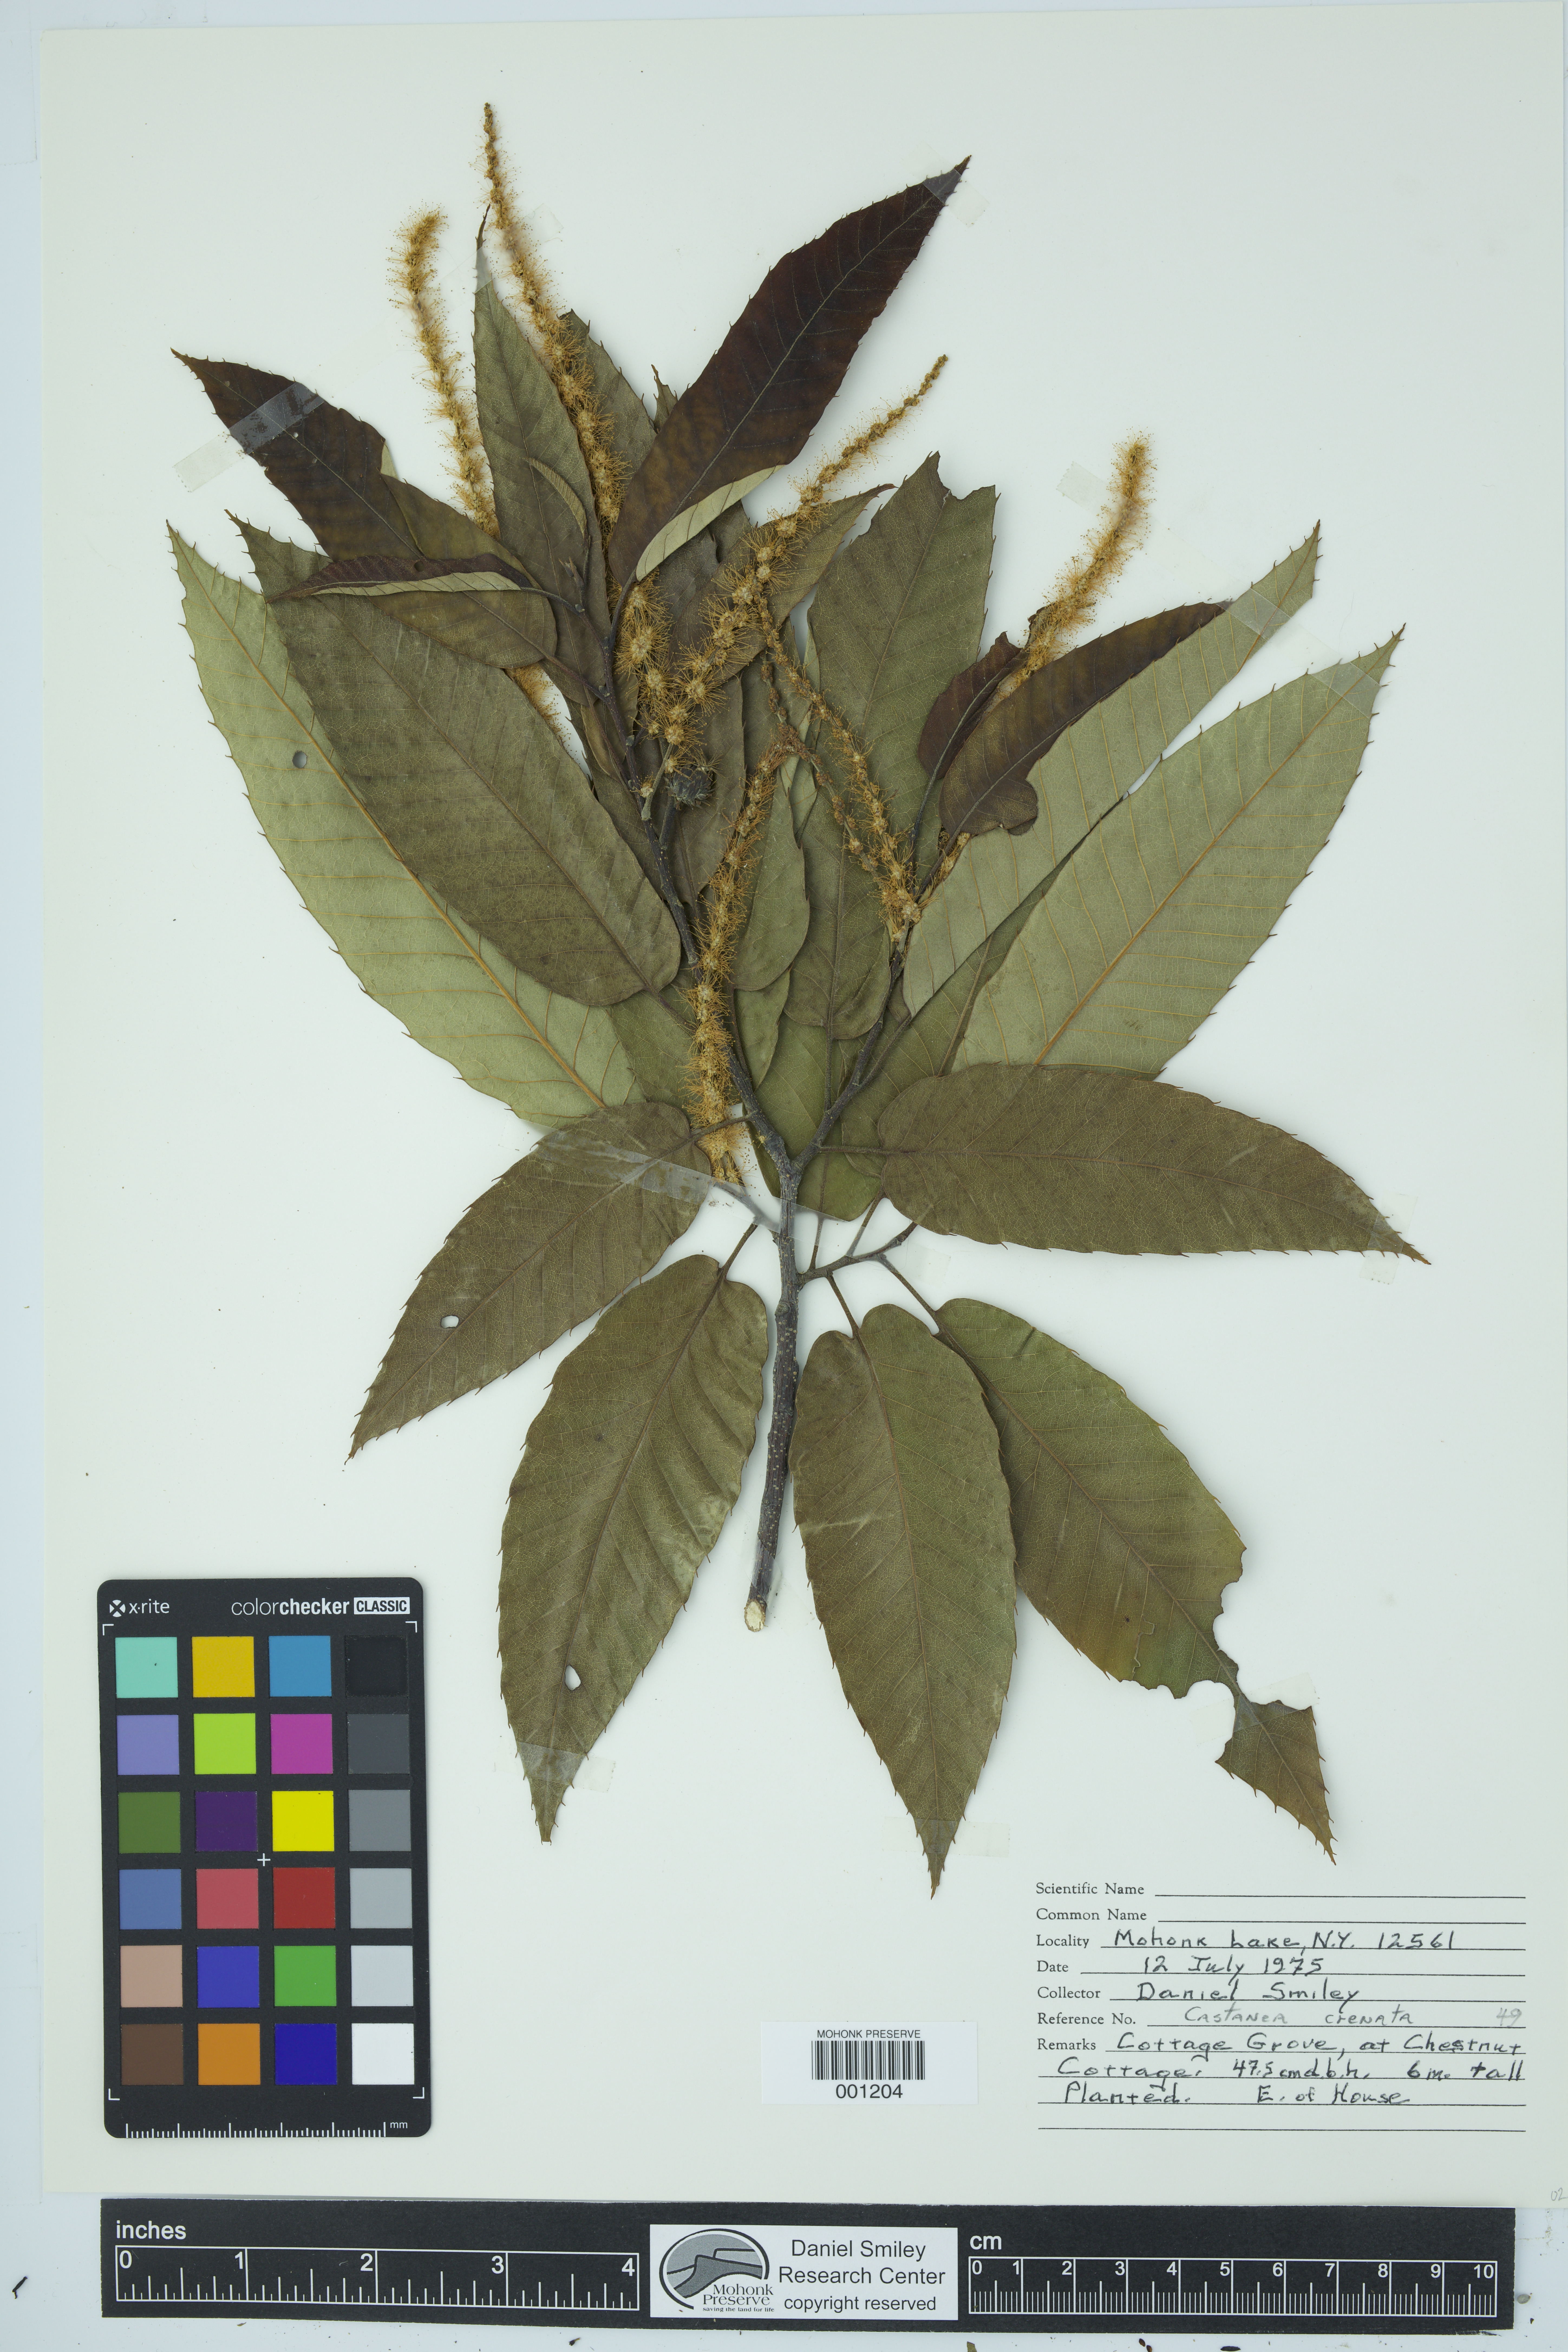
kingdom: Plantae
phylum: Tracheophyta
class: Magnoliopsida
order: Fagales
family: Fagaceae
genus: Castanea
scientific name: Castanea crenata
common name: Japanese chestnut
